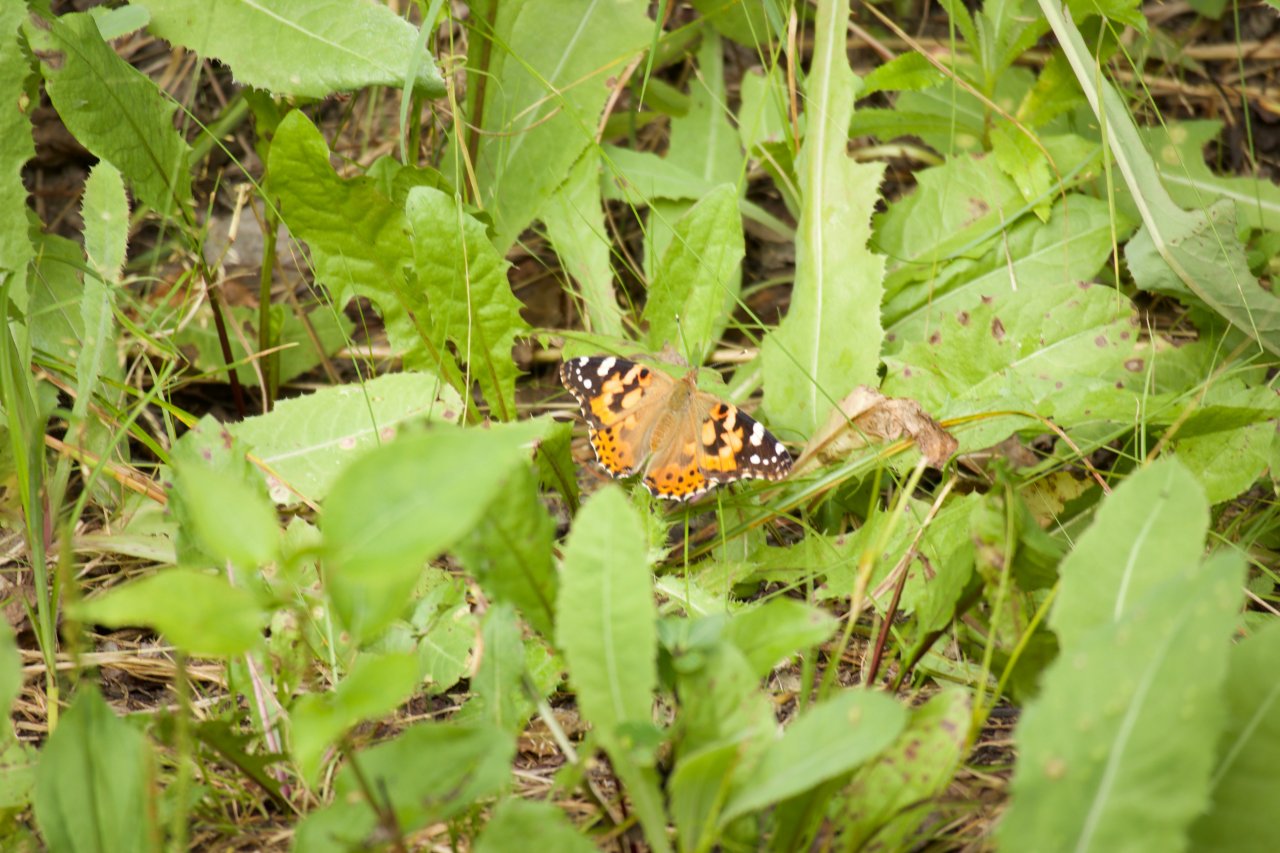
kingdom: Animalia
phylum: Arthropoda
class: Insecta
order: Lepidoptera
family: Nymphalidae
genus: Vanessa
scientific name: Vanessa cardui
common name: Painted Lady
